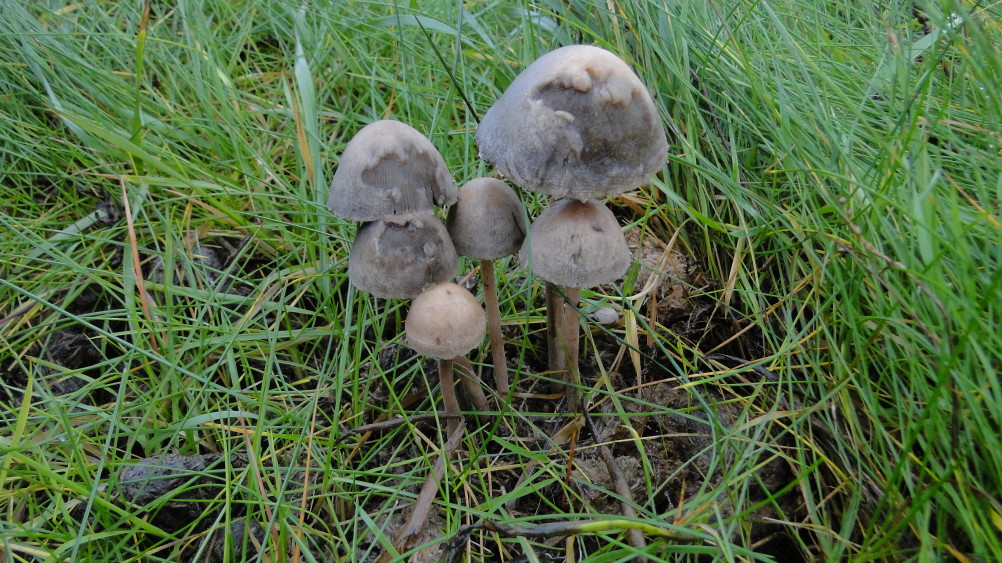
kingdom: Fungi
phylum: Basidiomycota
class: Agaricomycetes
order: Agaricales
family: Bolbitiaceae
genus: Panaeolus
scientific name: Panaeolus papilionaceus
